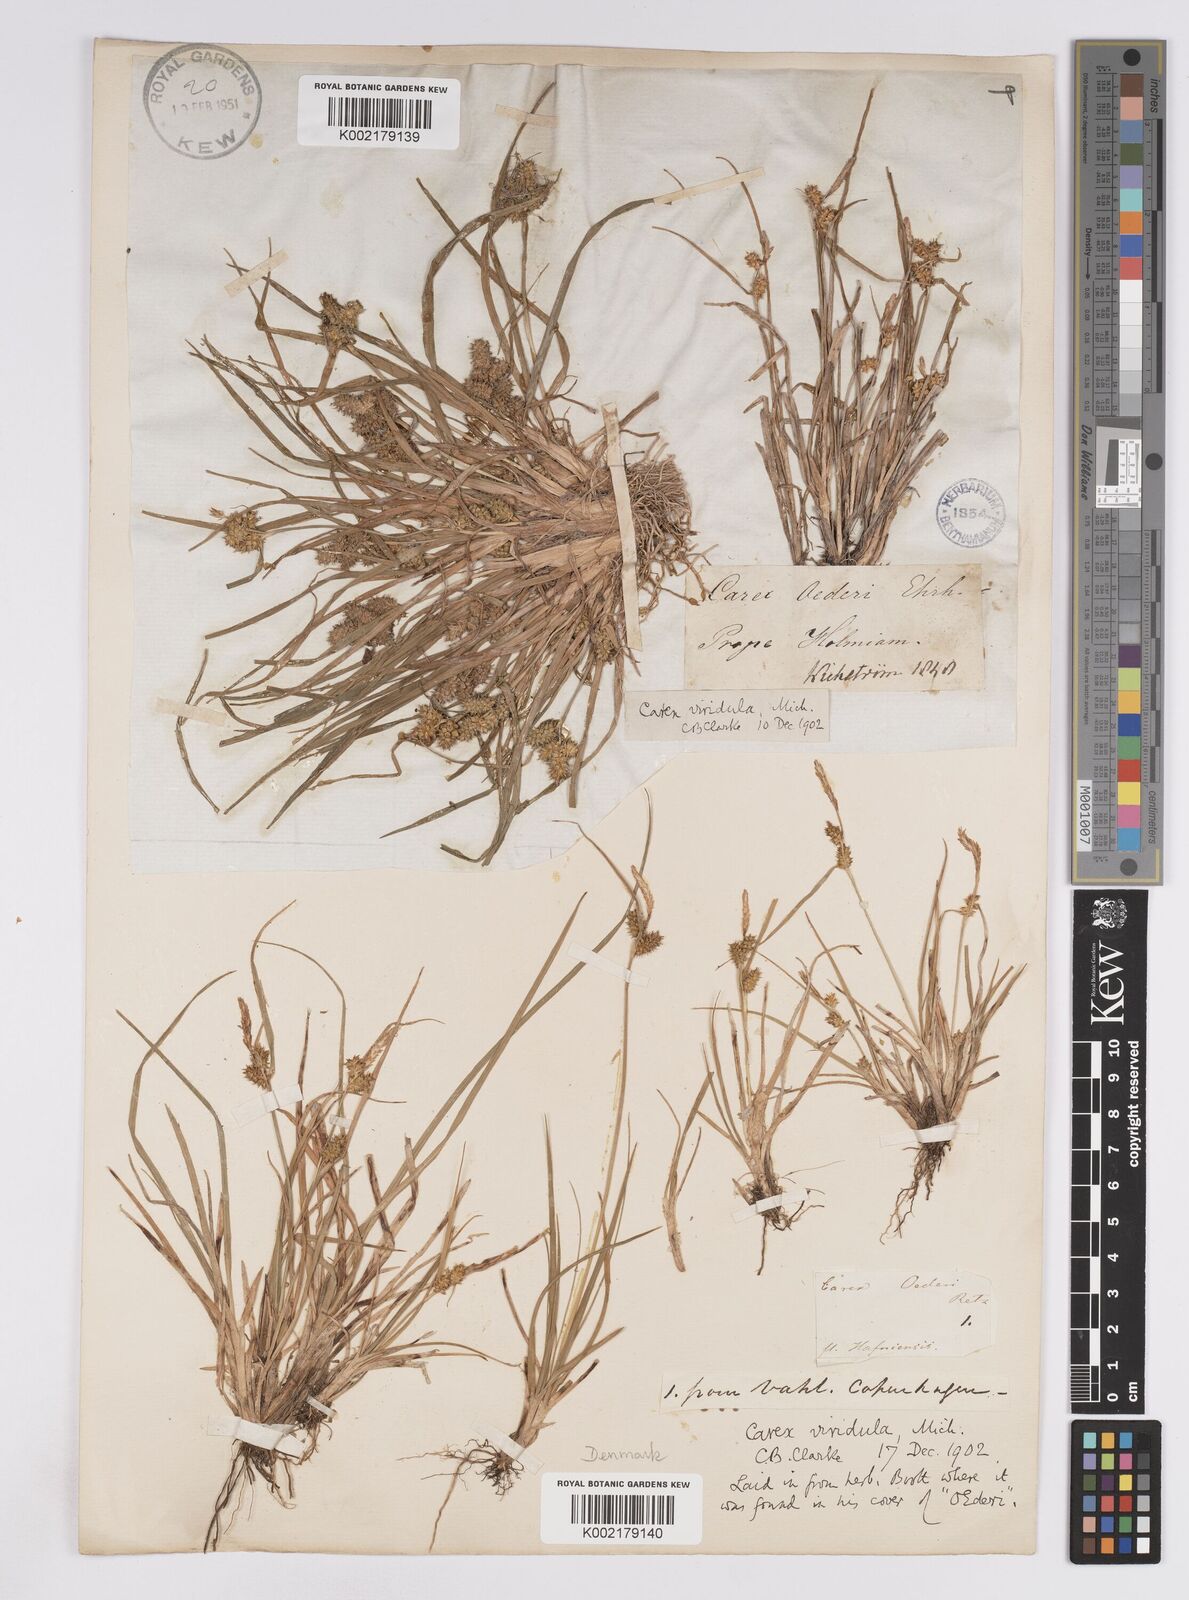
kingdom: Plantae
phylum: Tracheophyta
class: Liliopsida
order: Poales
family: Cyperaceae
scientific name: Cyperaceae
